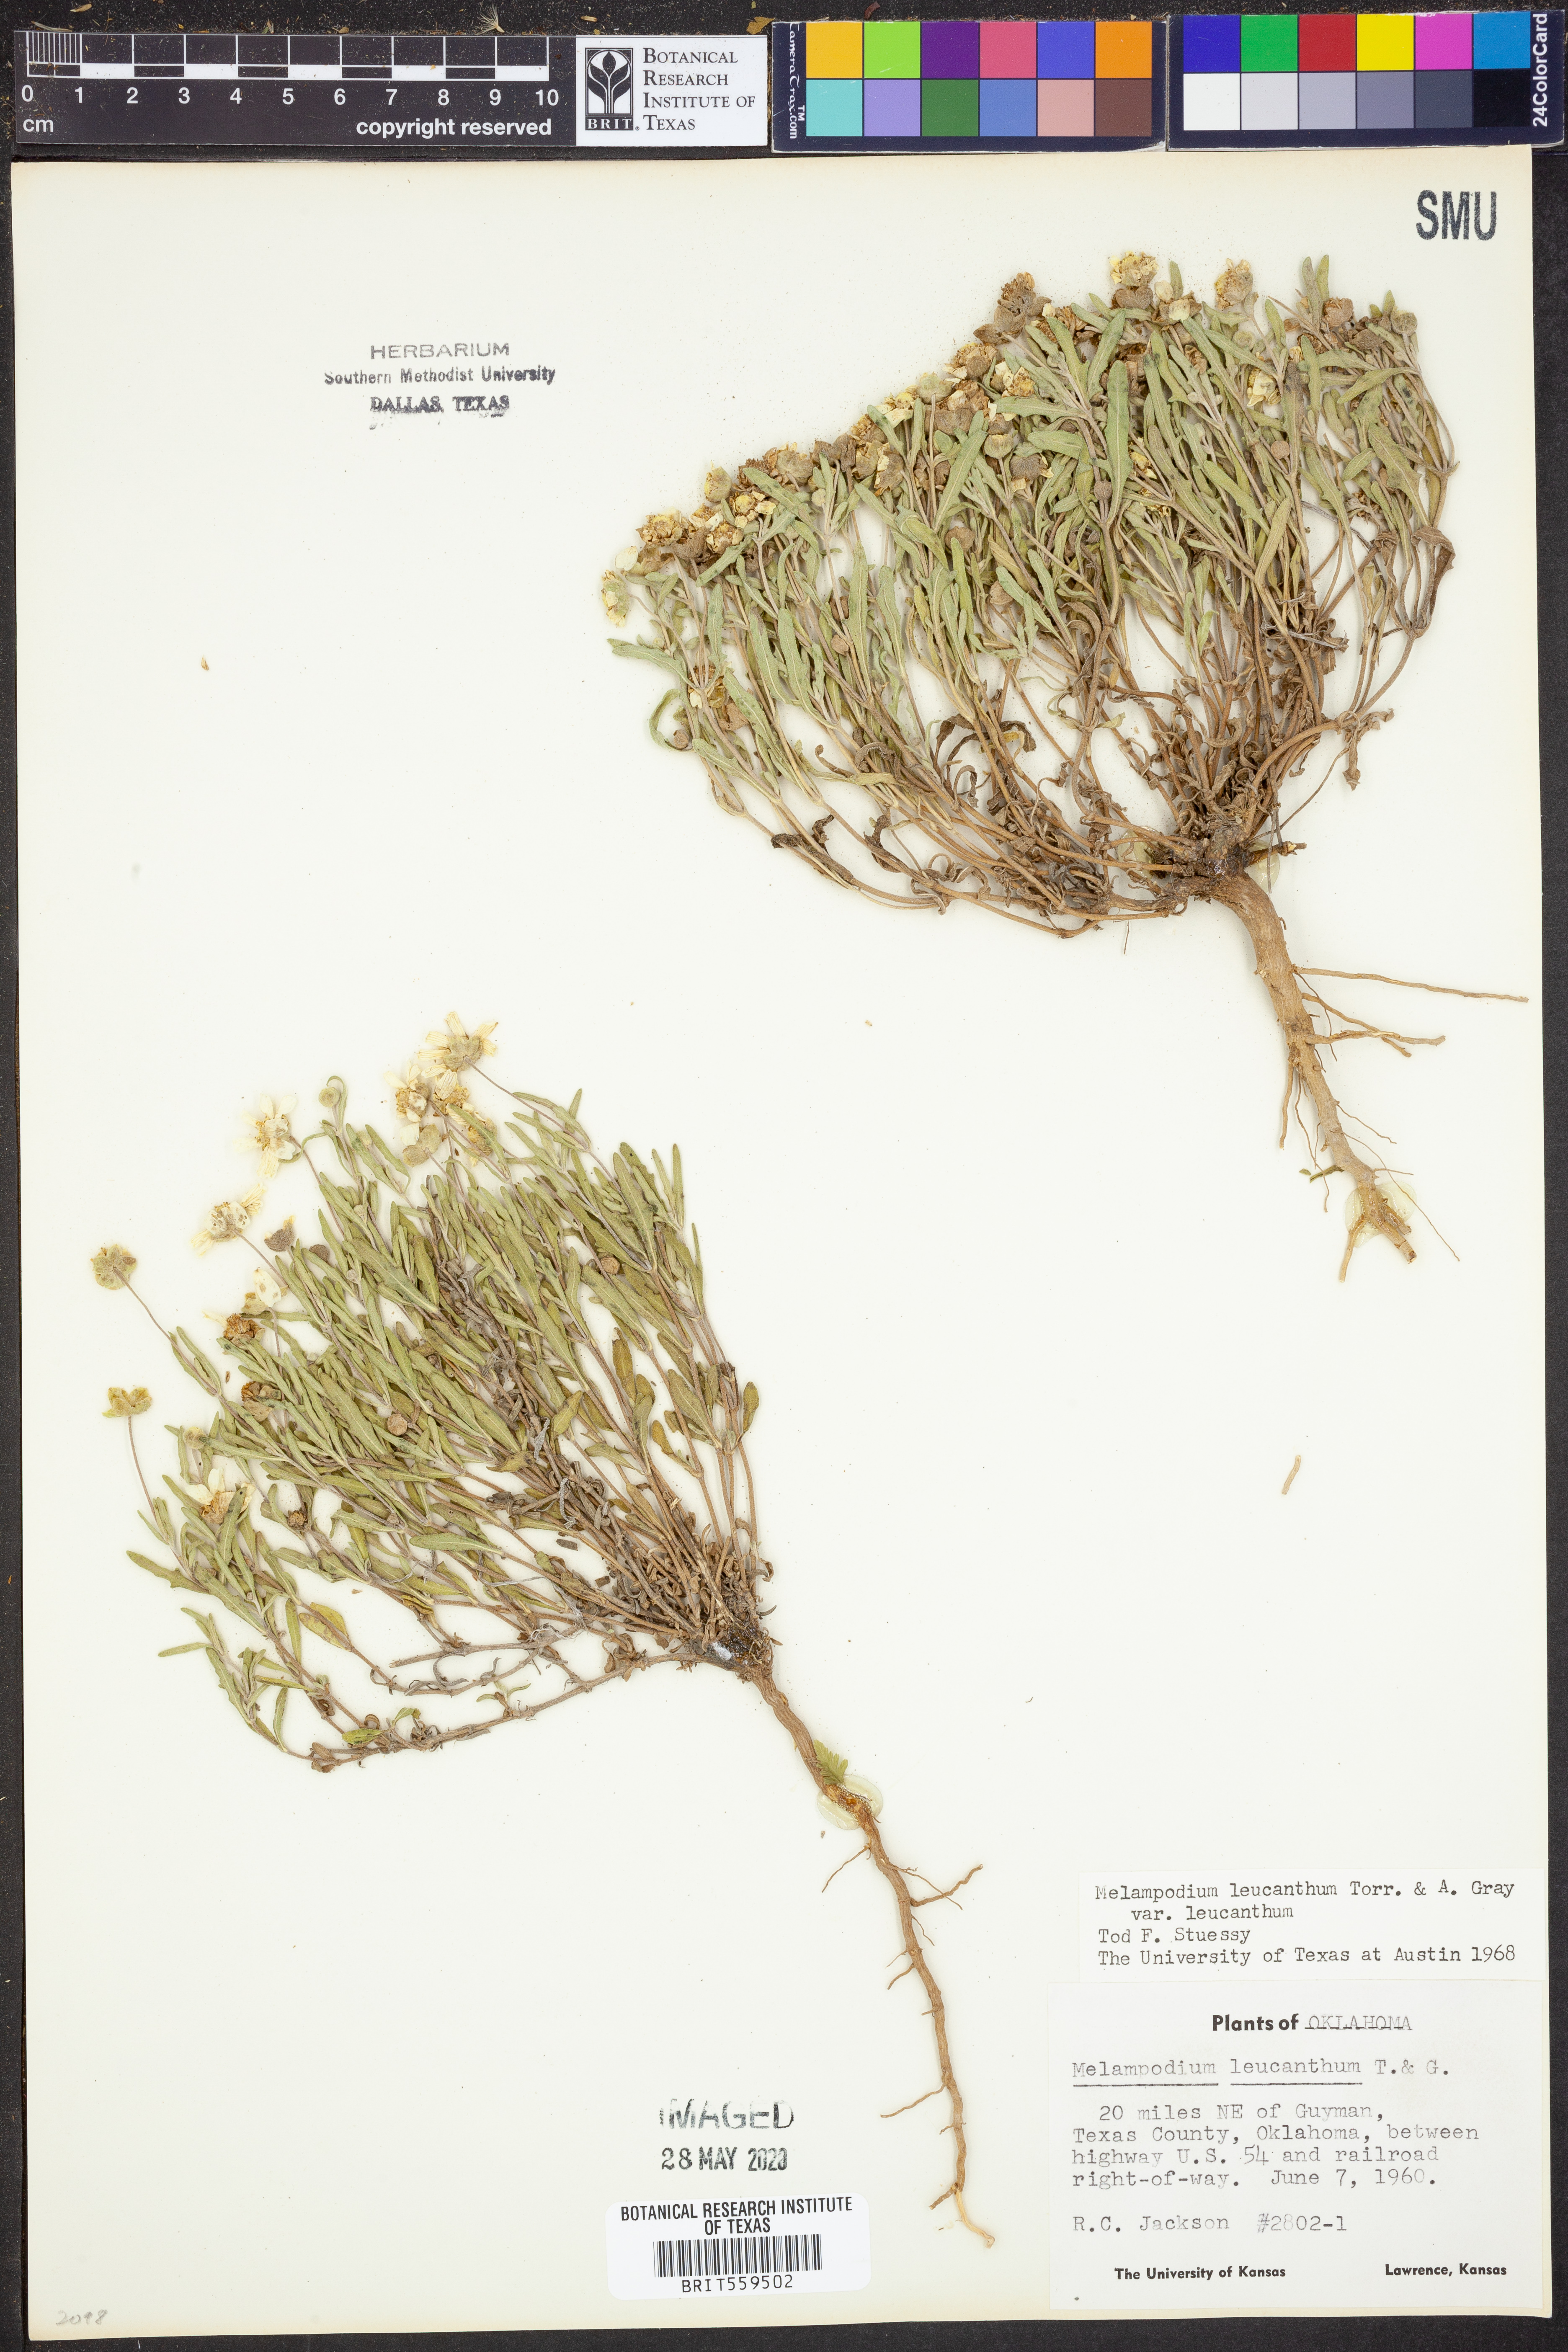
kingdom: Plantae
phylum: Tracheophyta
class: Magnoliopsida
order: Asterales
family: Asteraceae
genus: Melampodium
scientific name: Melampodium leucanthum
